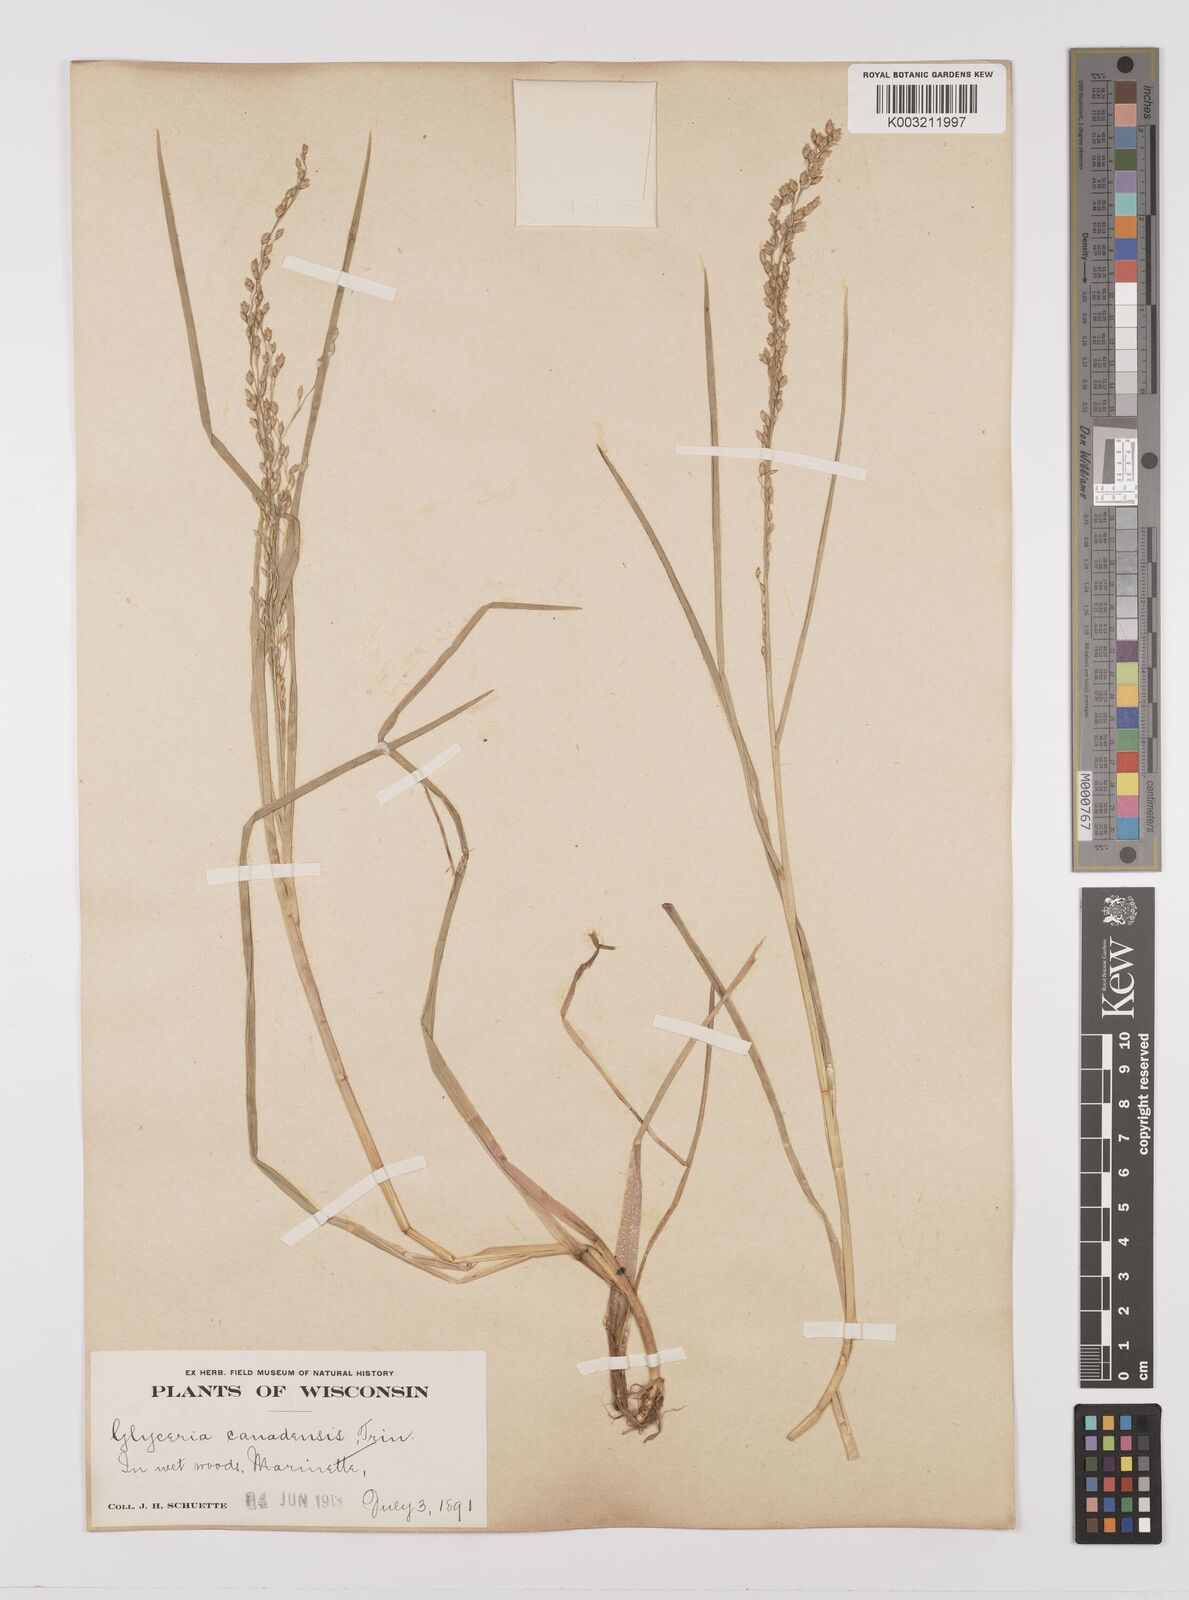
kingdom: Plantae
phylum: Tracheophyta
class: Liliopsida
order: Poales
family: Poaceae
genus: Glyceria
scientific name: Glyceria canadensis
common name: Canada mannagrass
